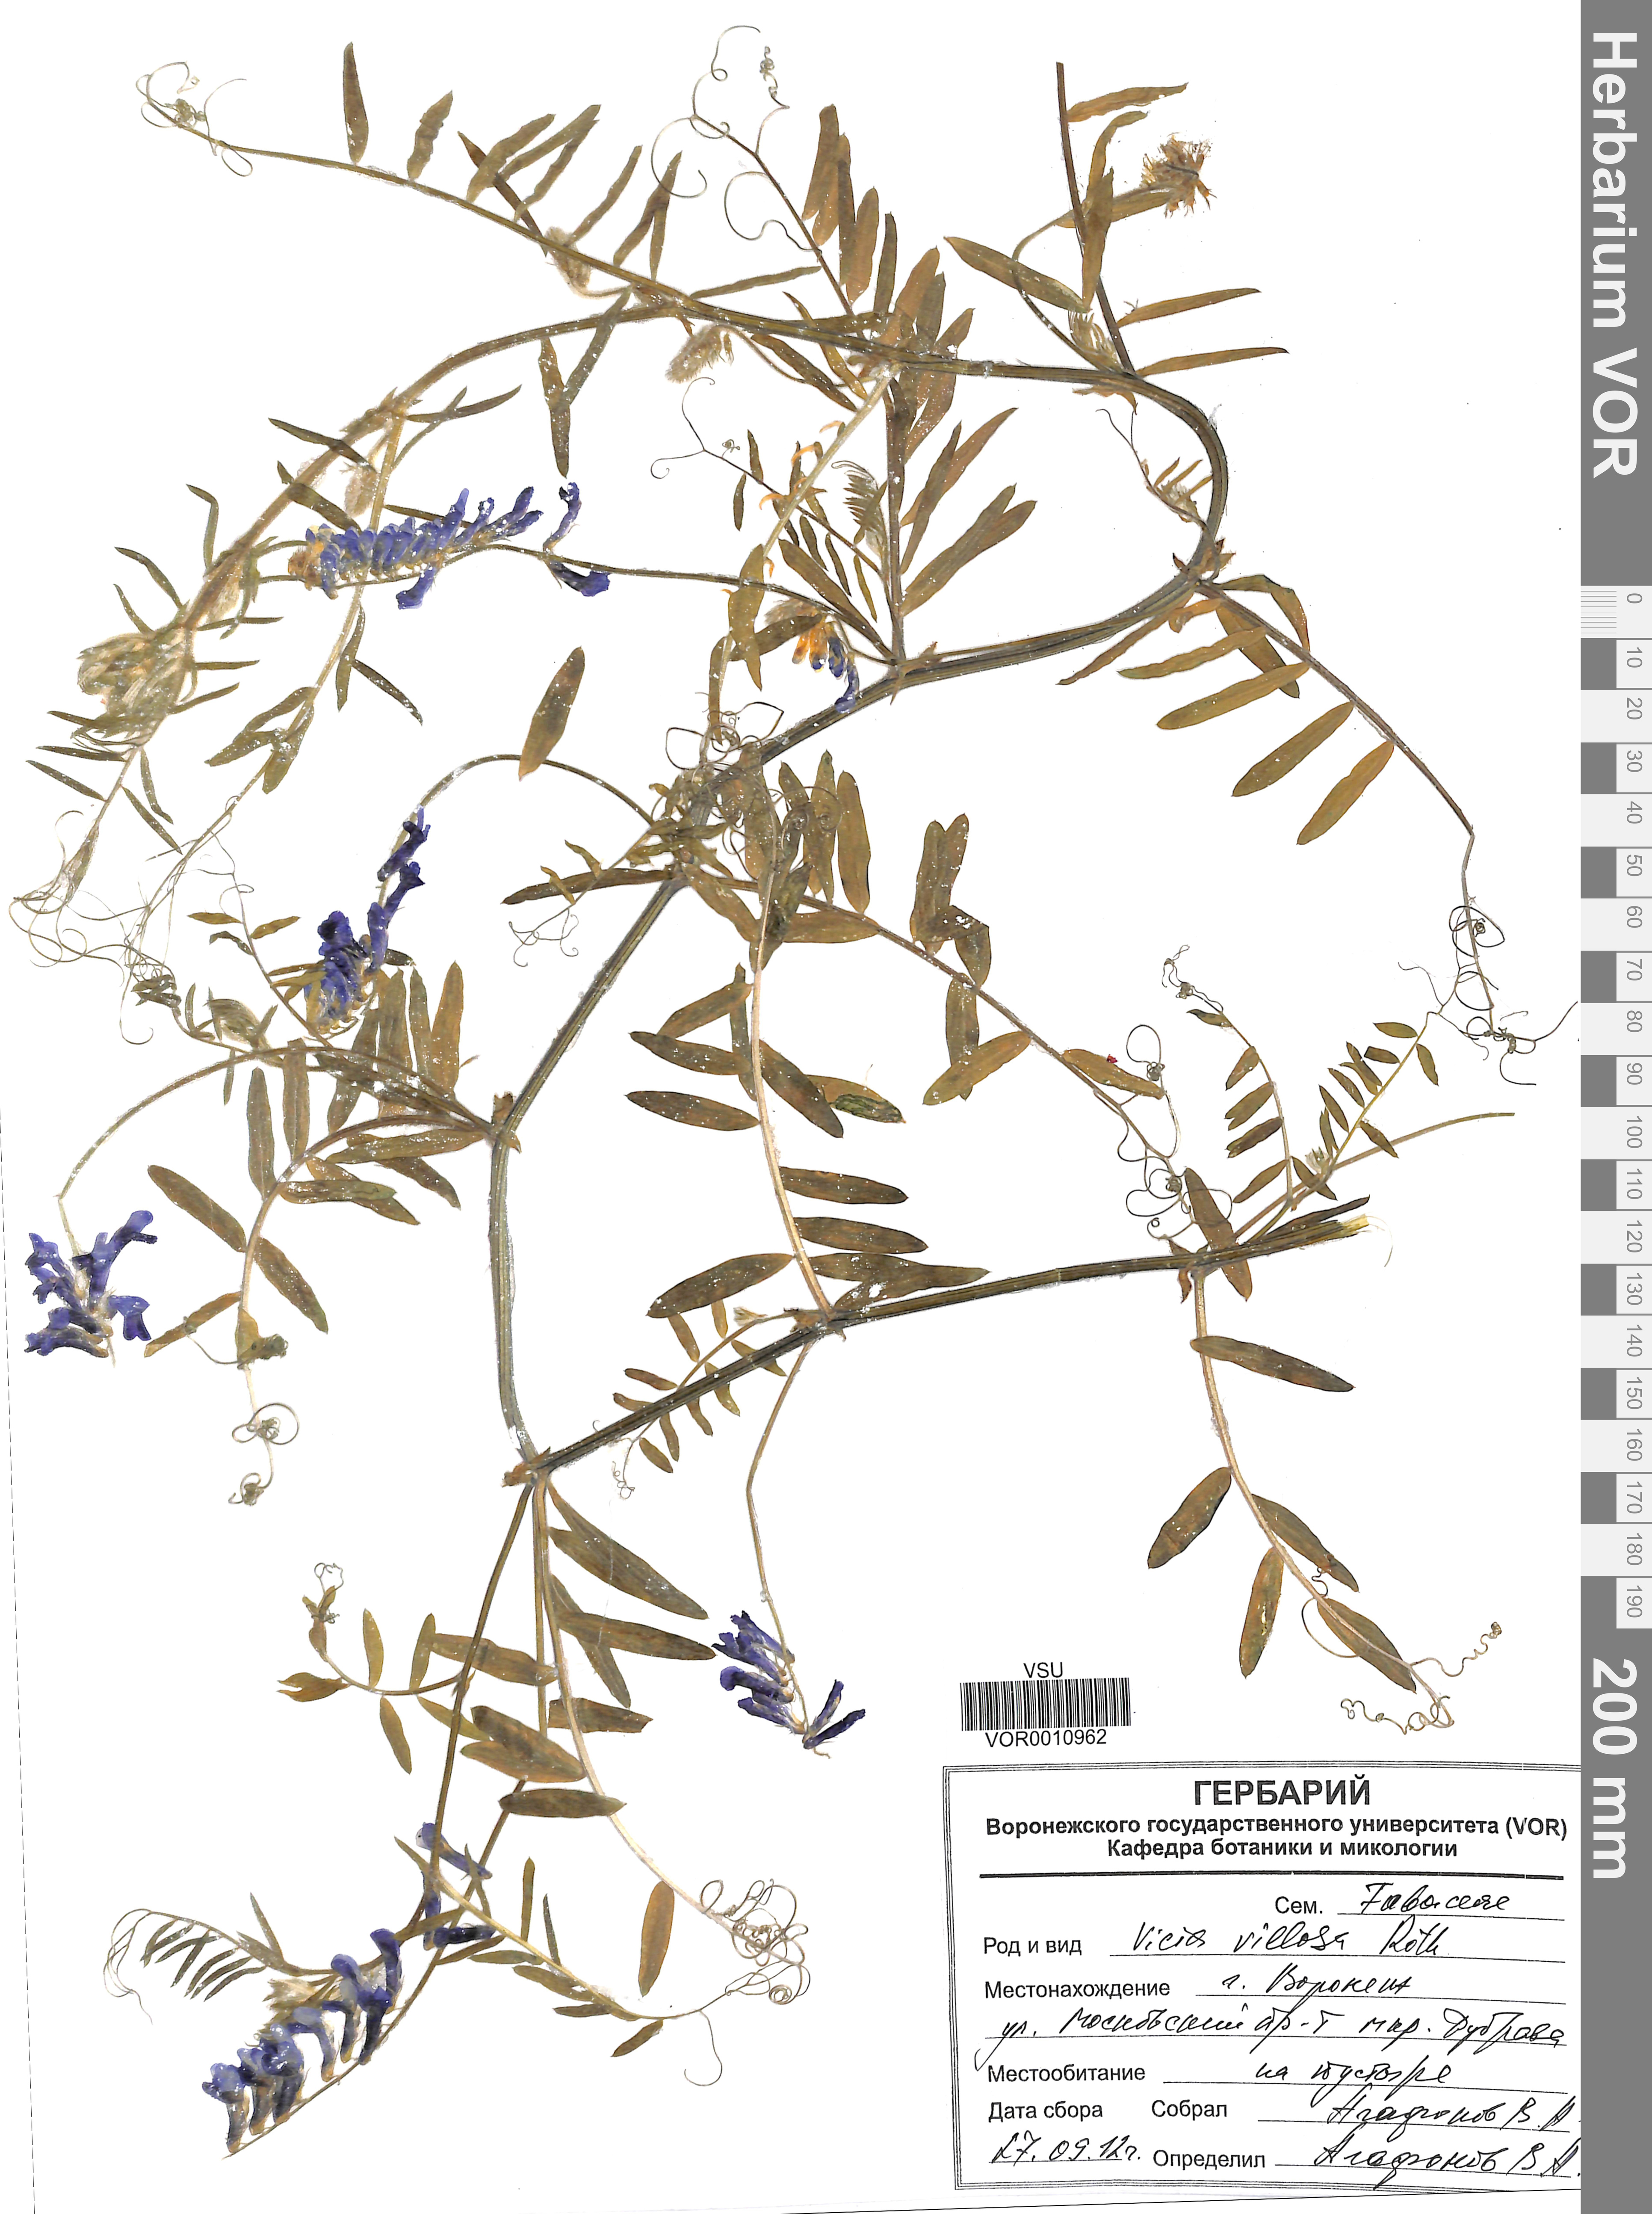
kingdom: Plantae
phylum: Tracheophyta
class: Magnoliopsida
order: Fabales
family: Fabaceae
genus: Vicia
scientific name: Vicia villosa
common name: Fodder vetch
